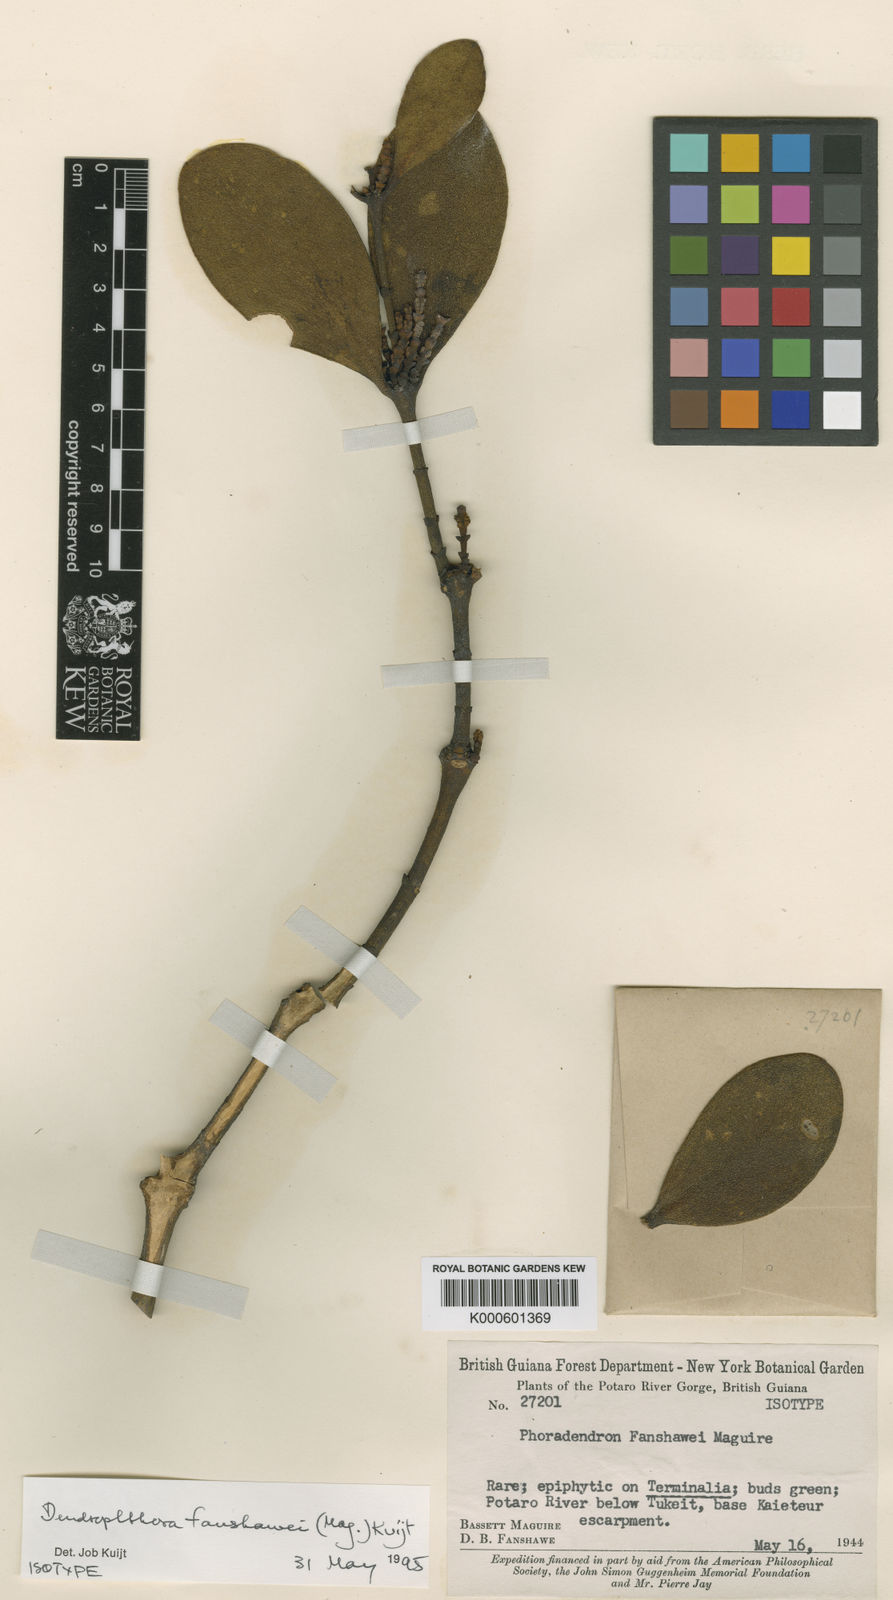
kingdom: Plantae
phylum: Tracheophyta
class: Magnoliopsida
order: Santalales
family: Viscaceae
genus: Dendrophthora
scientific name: Dendrophthora fanshawei
